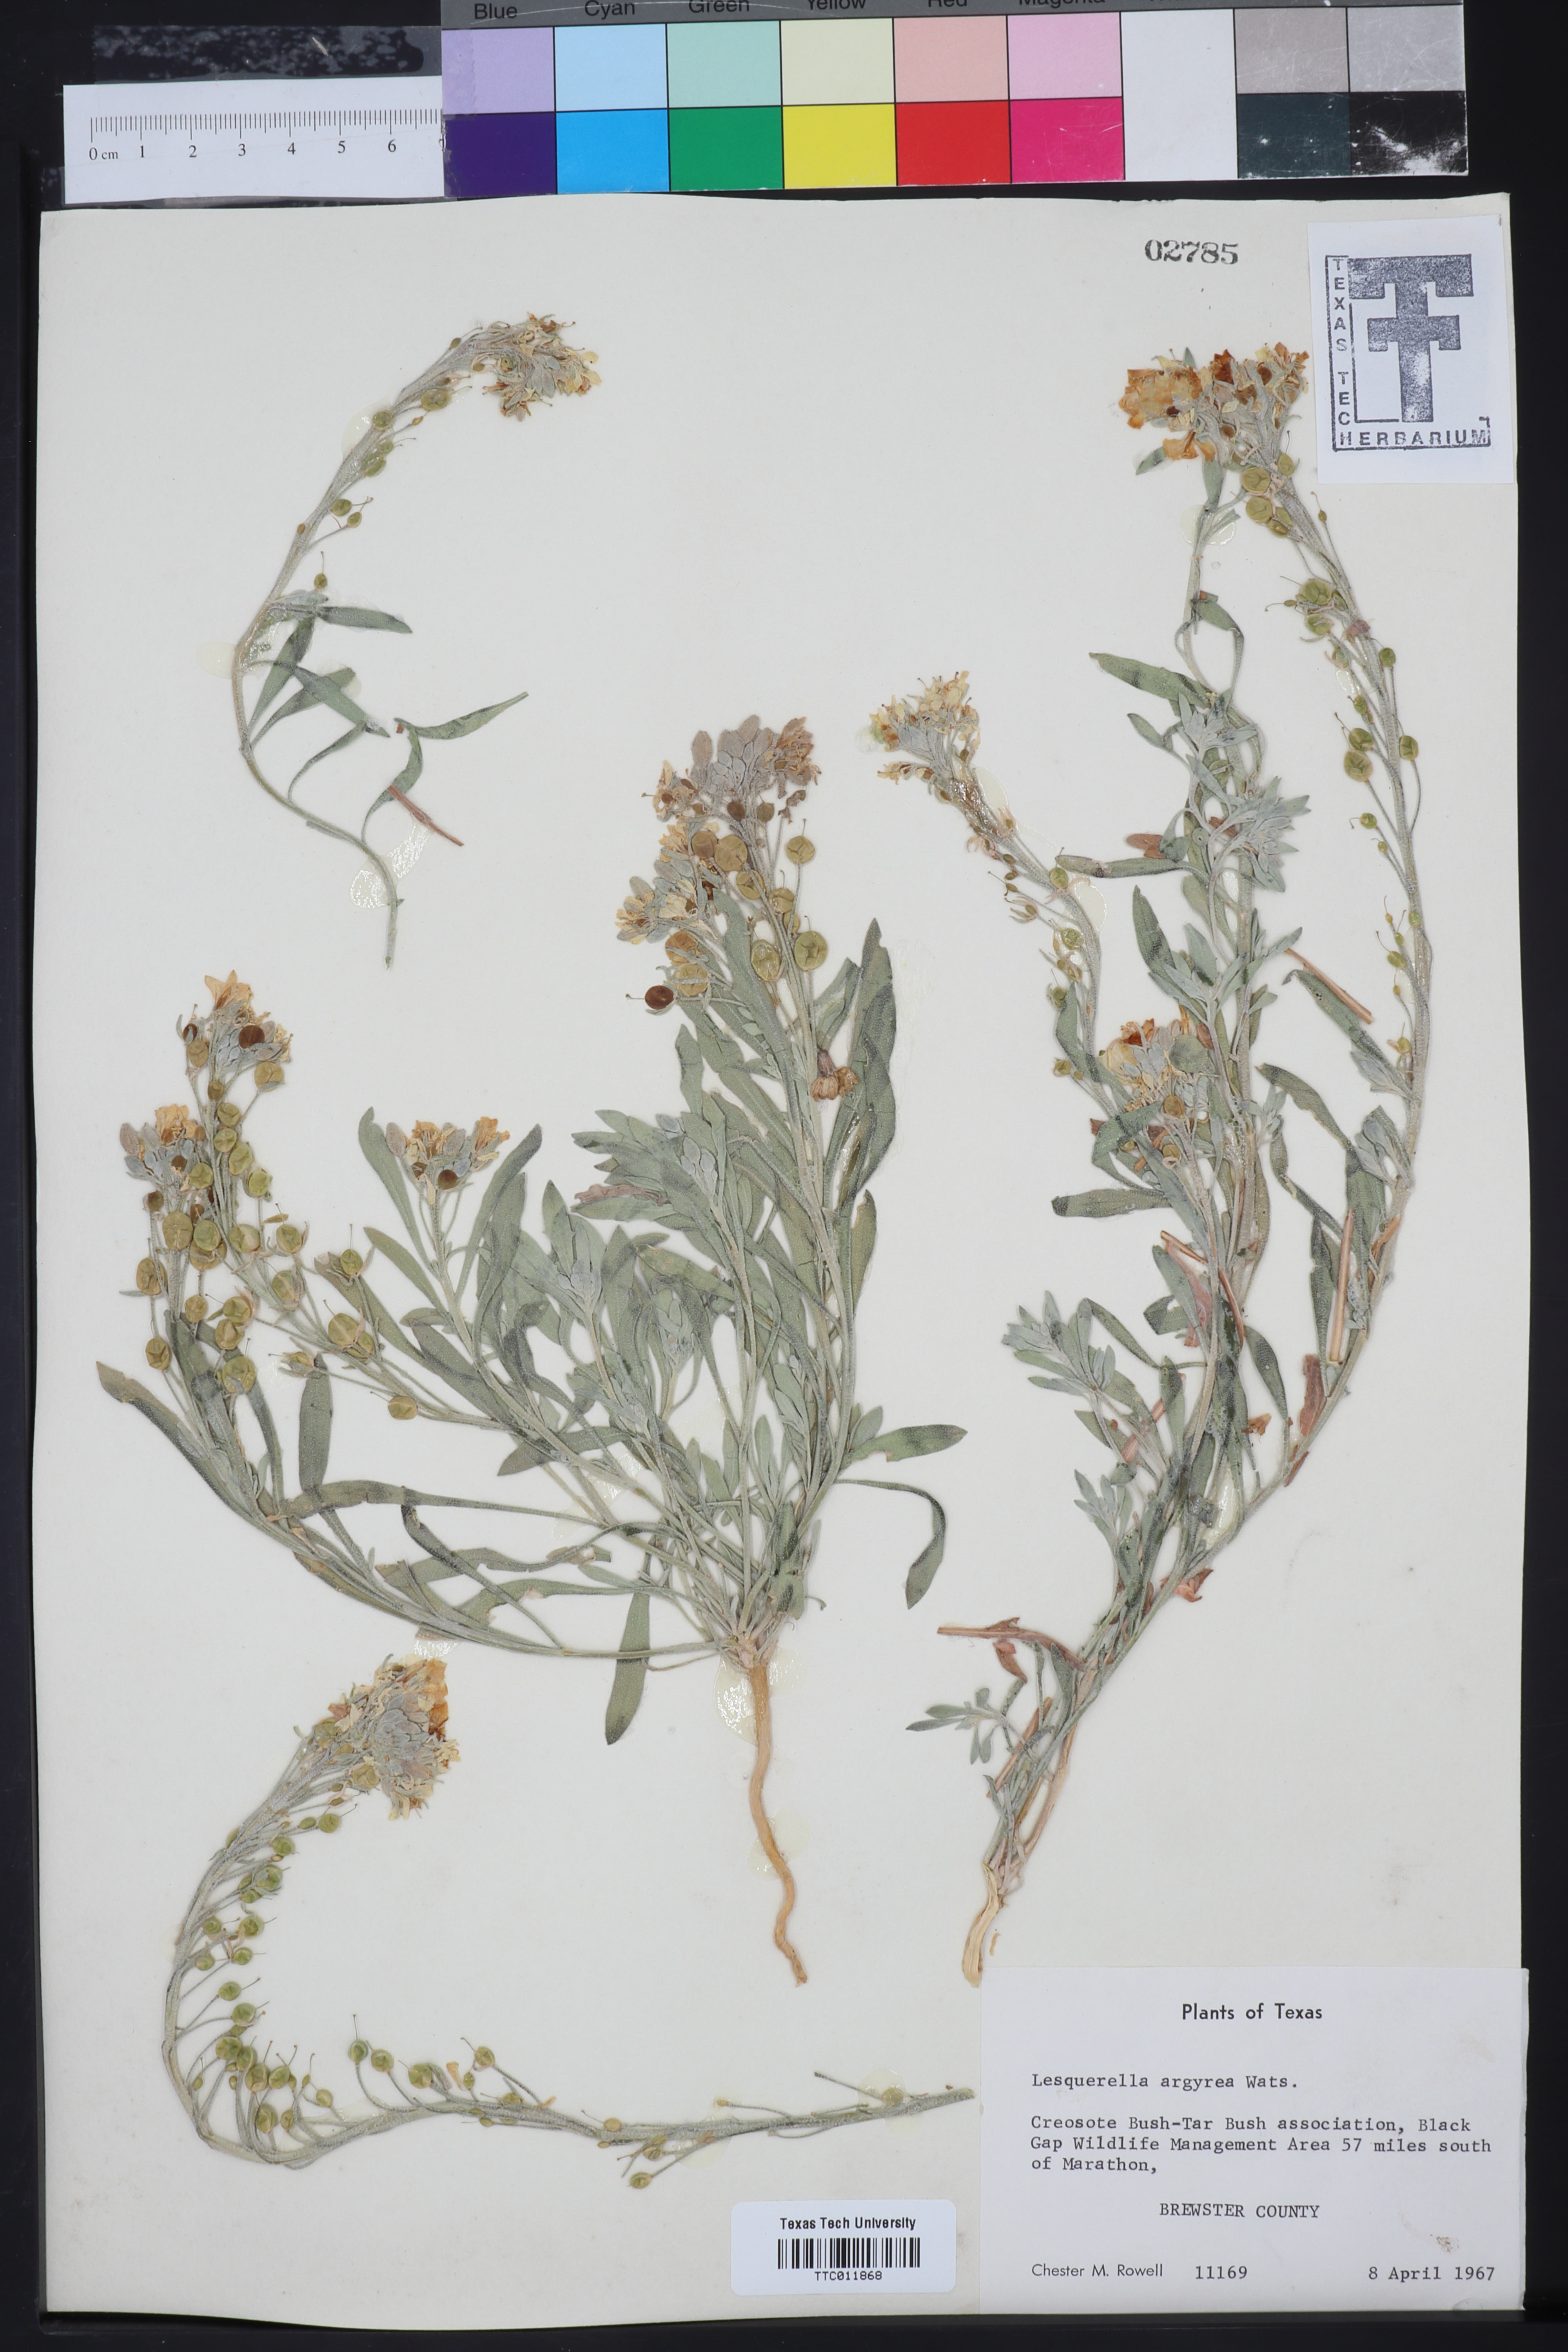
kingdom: Plantae
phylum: Tracheophyta
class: Magnoliopsida
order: Brassicales
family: Brassicaceae
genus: Physaria
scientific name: Physaria argyraea
